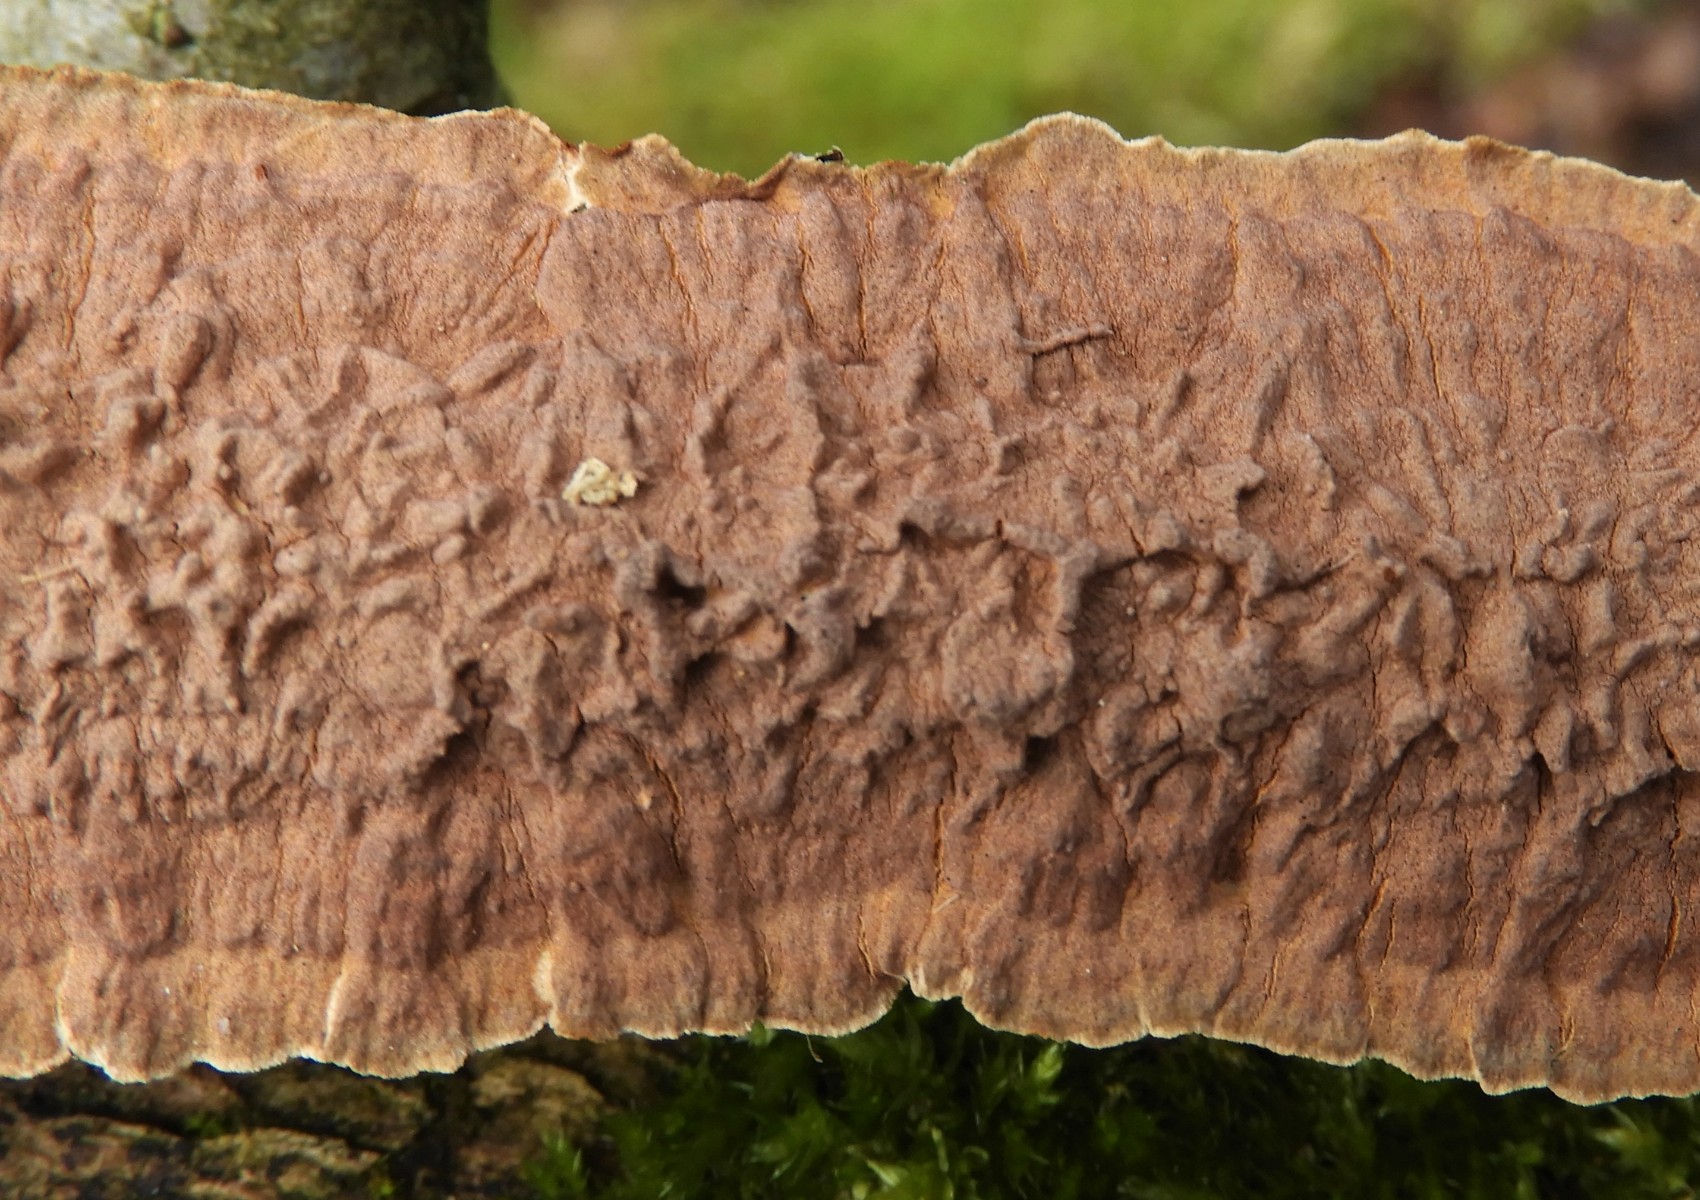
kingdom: Fungi
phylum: Basidiomycota
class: Agaricomycetes
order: Hymenochaetales
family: Hymenochaetaceae
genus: Hydnoporia
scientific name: Hydnoporia tabacina
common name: tobaksbrun ruslædersvamp
